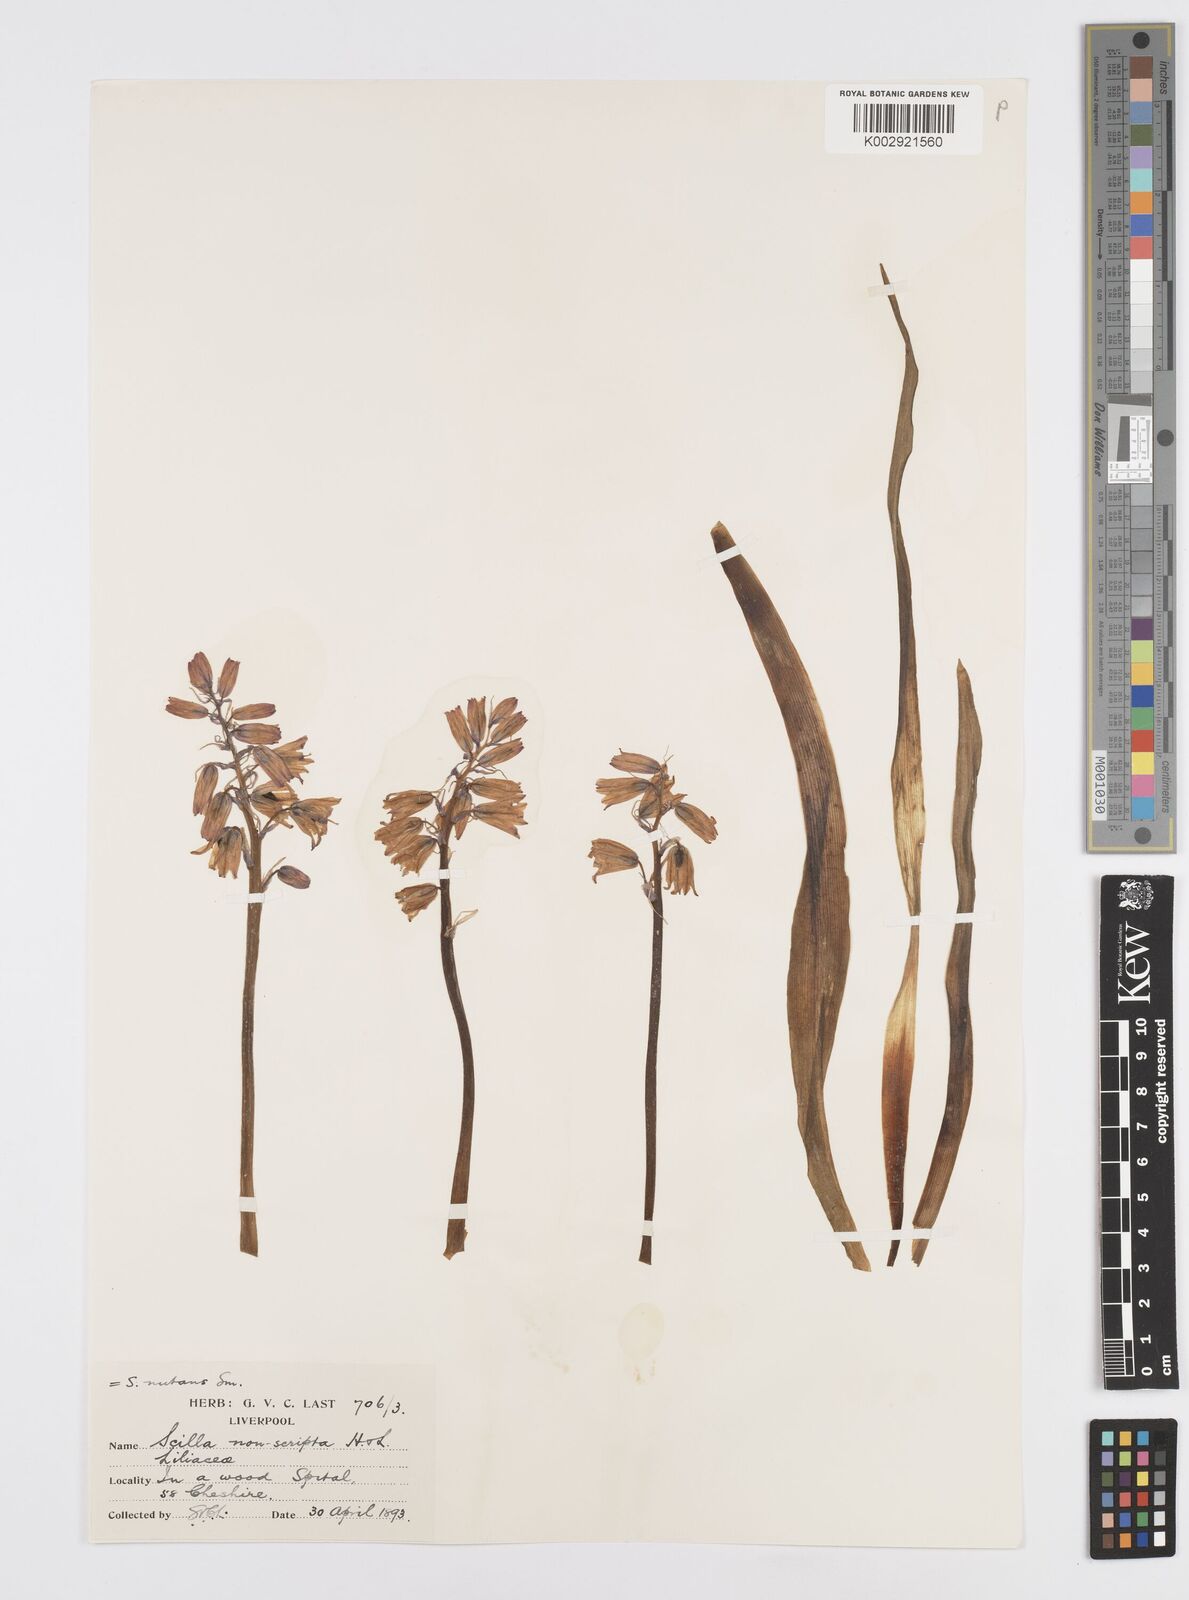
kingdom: Plantae
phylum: Tracheophyta
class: Liliopsida
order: Asparagales
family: Asparagaceae
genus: Hyacinthoides
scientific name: Hyacinthoides non-scripta
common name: Bluebell
